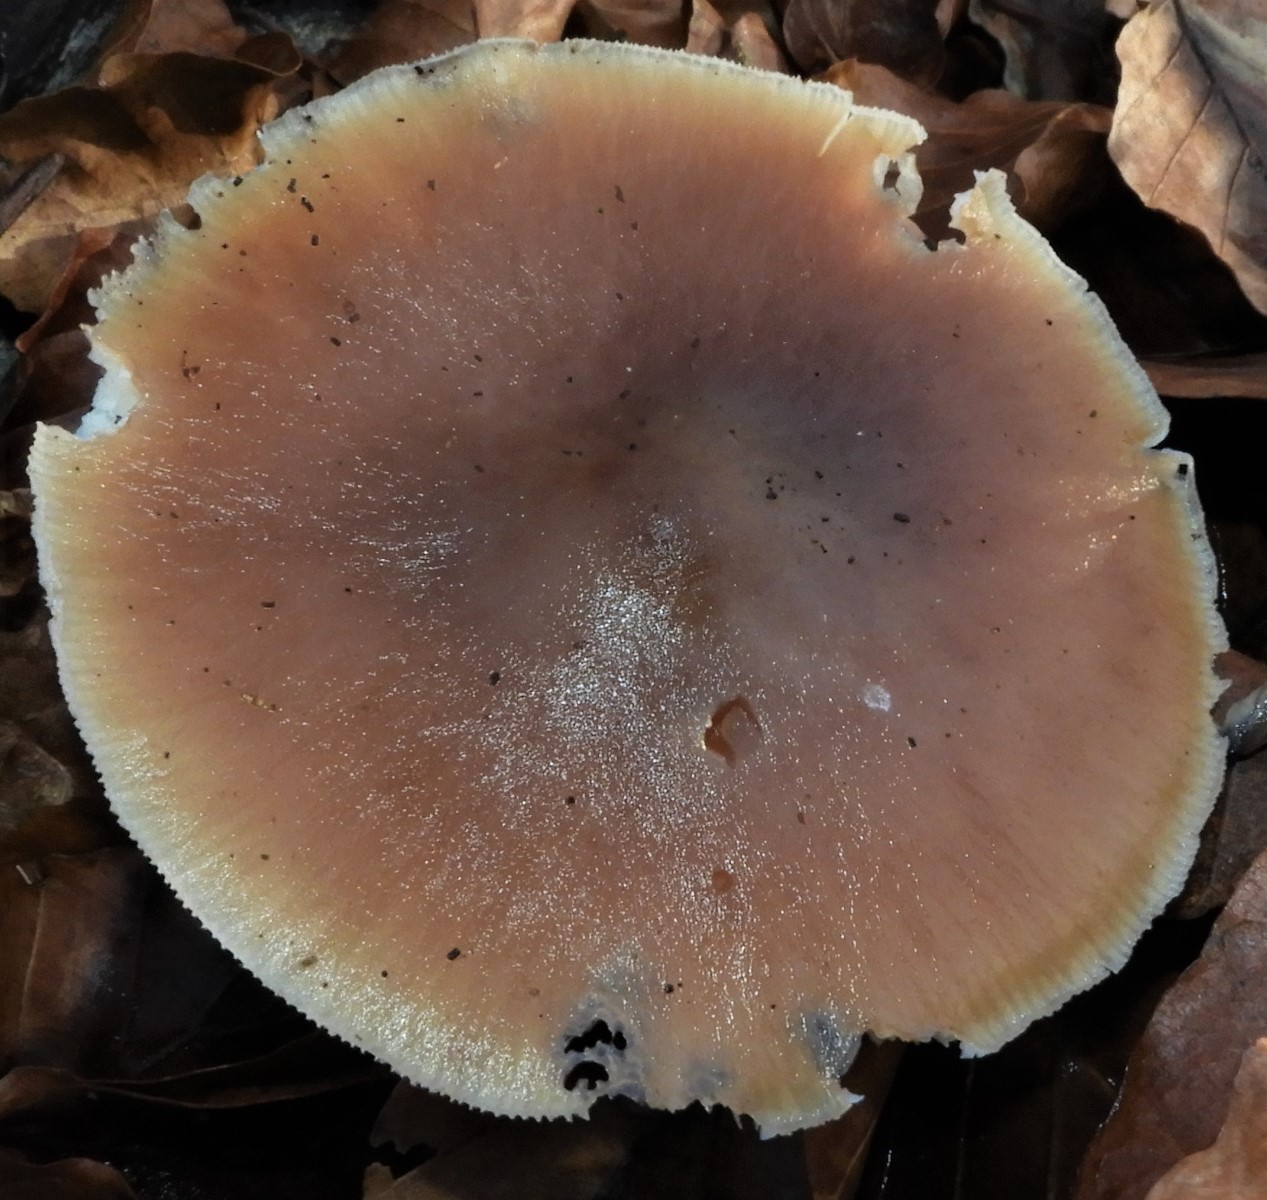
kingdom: Fungi
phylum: Basidiomycota
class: Agaricomycetes
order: Agaricales
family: Omphalotaceae
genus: Rhodocollybia
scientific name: Rhodocollybia asema
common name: horngrå fladhat
